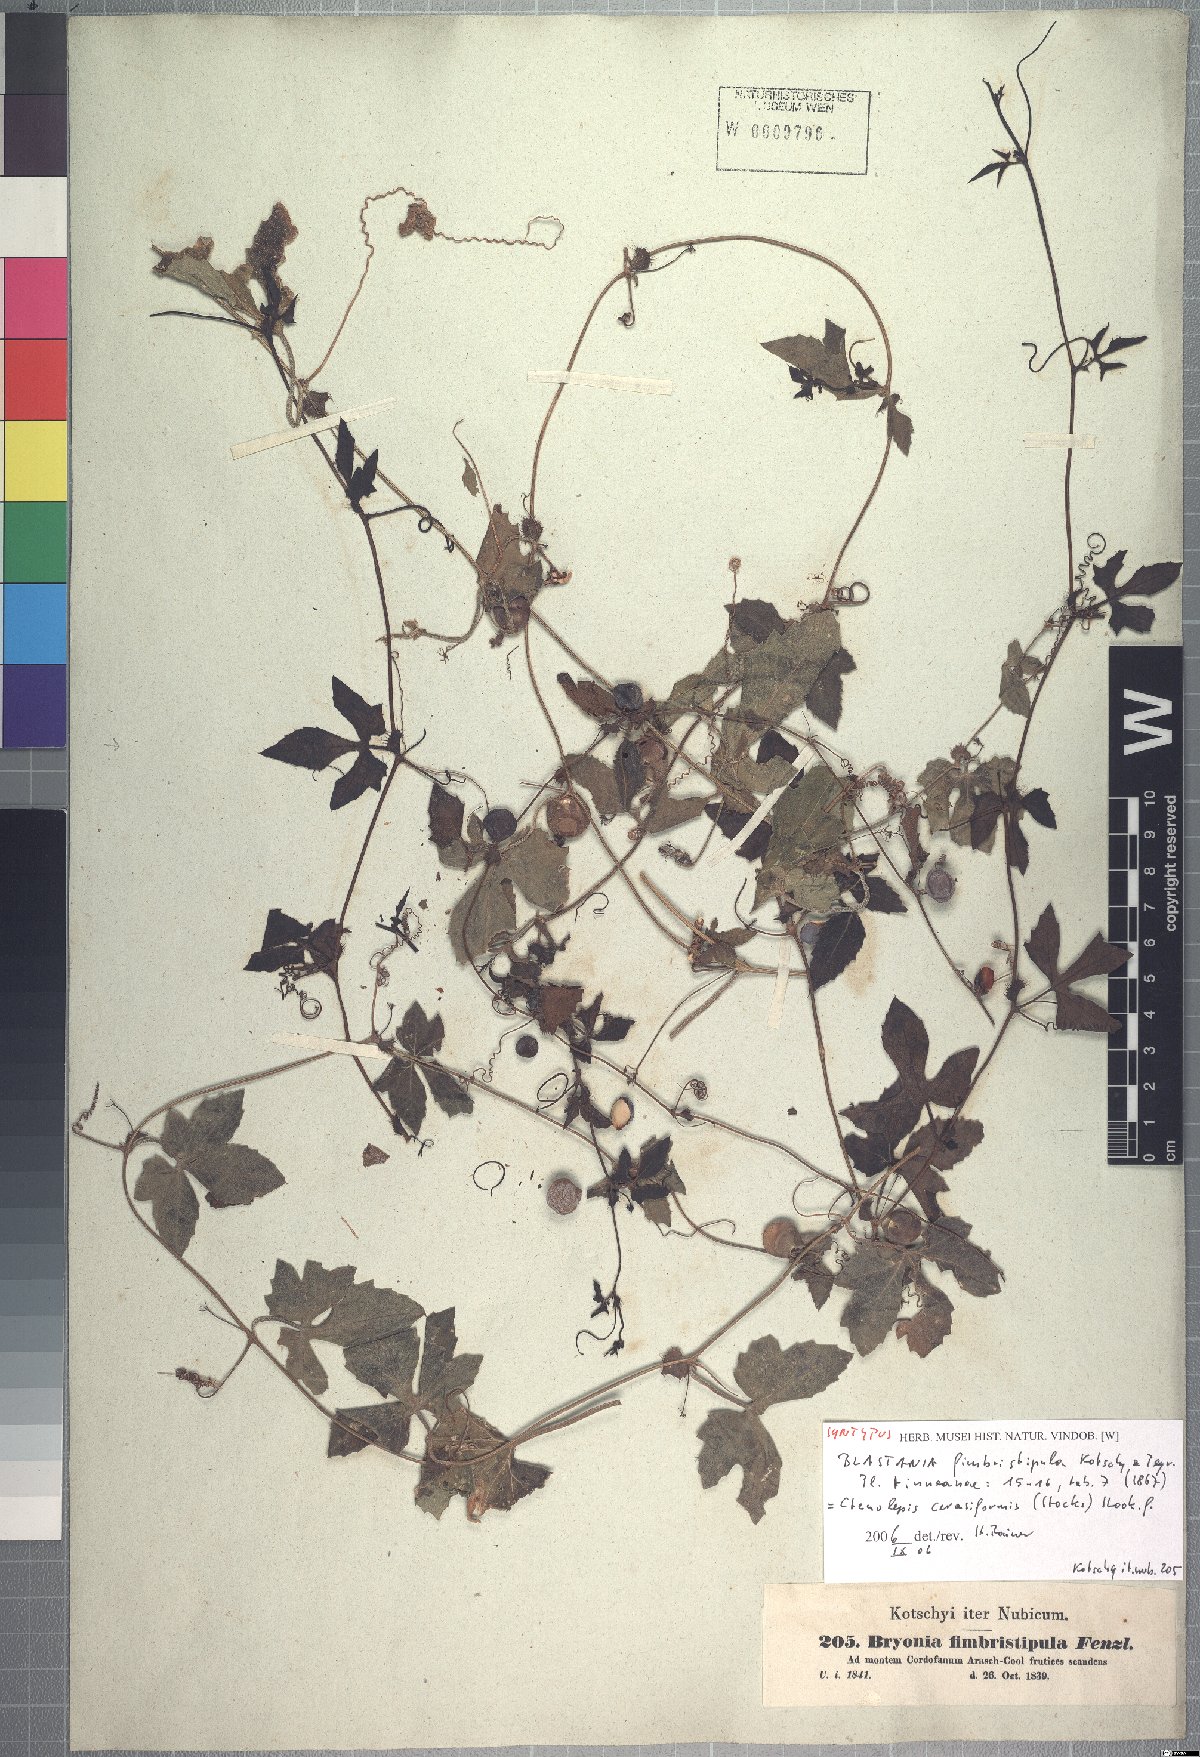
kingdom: Plantae
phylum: Tracheophyta
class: Magnoliopsida
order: Cucurbitales
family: Cucurbitaceae
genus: Blastania
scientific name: Blastania cerasiformis
